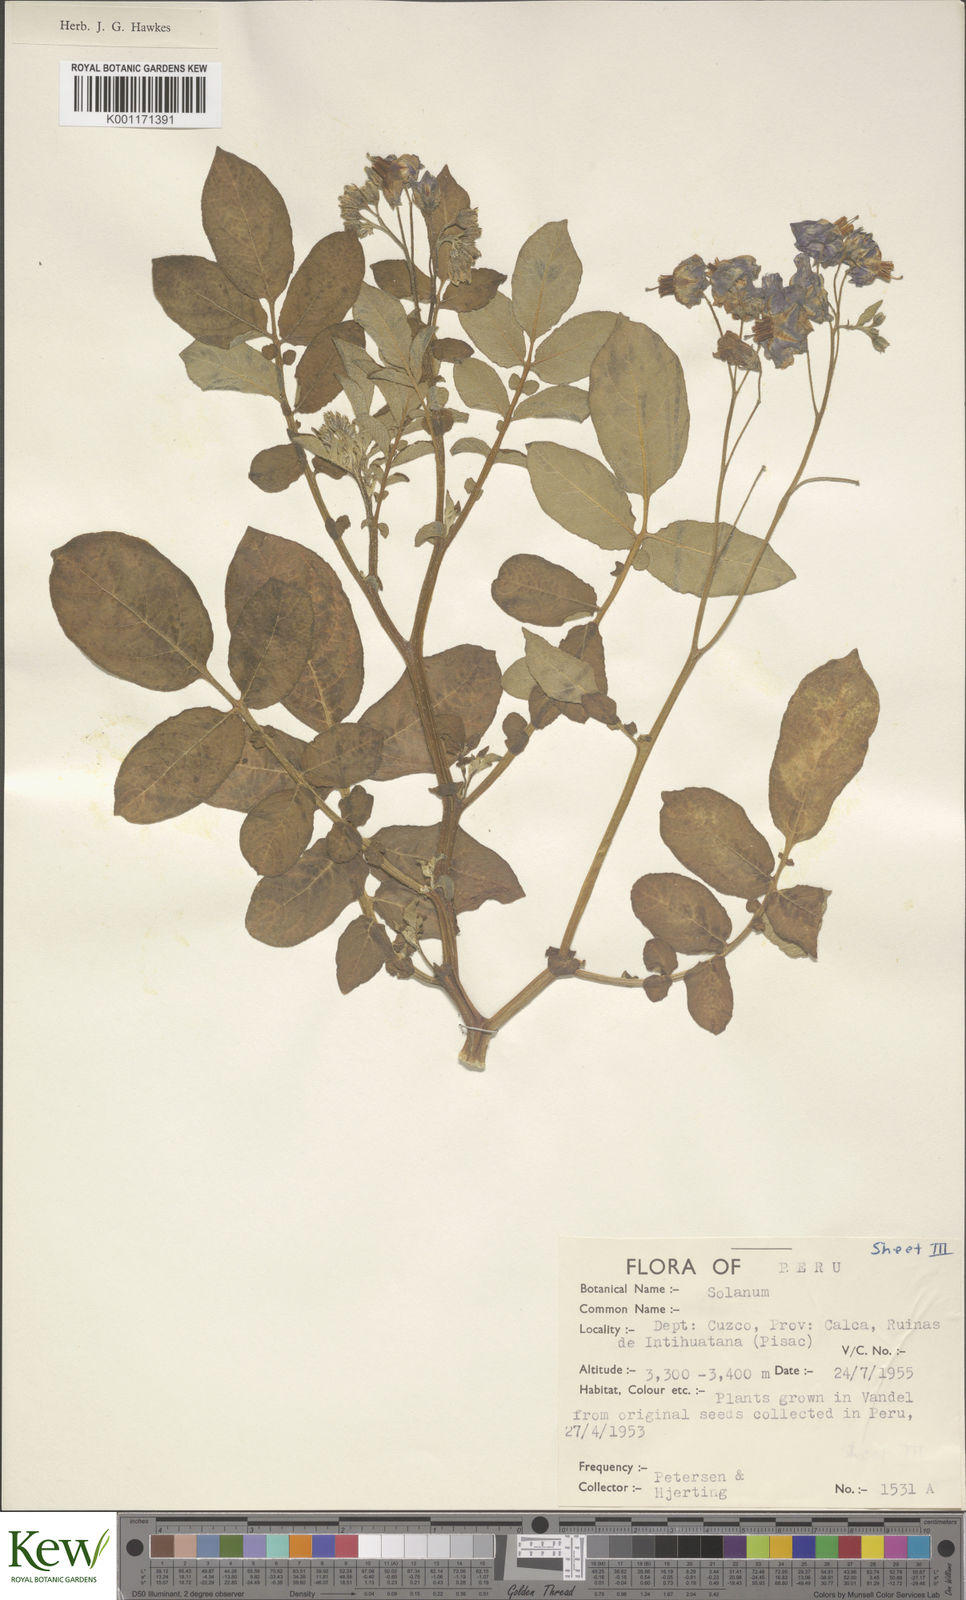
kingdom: Plantae
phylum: Tracheophyta
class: Magnoliopsida
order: Solanales
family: Solanaceae
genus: Solanum
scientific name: Solanum
